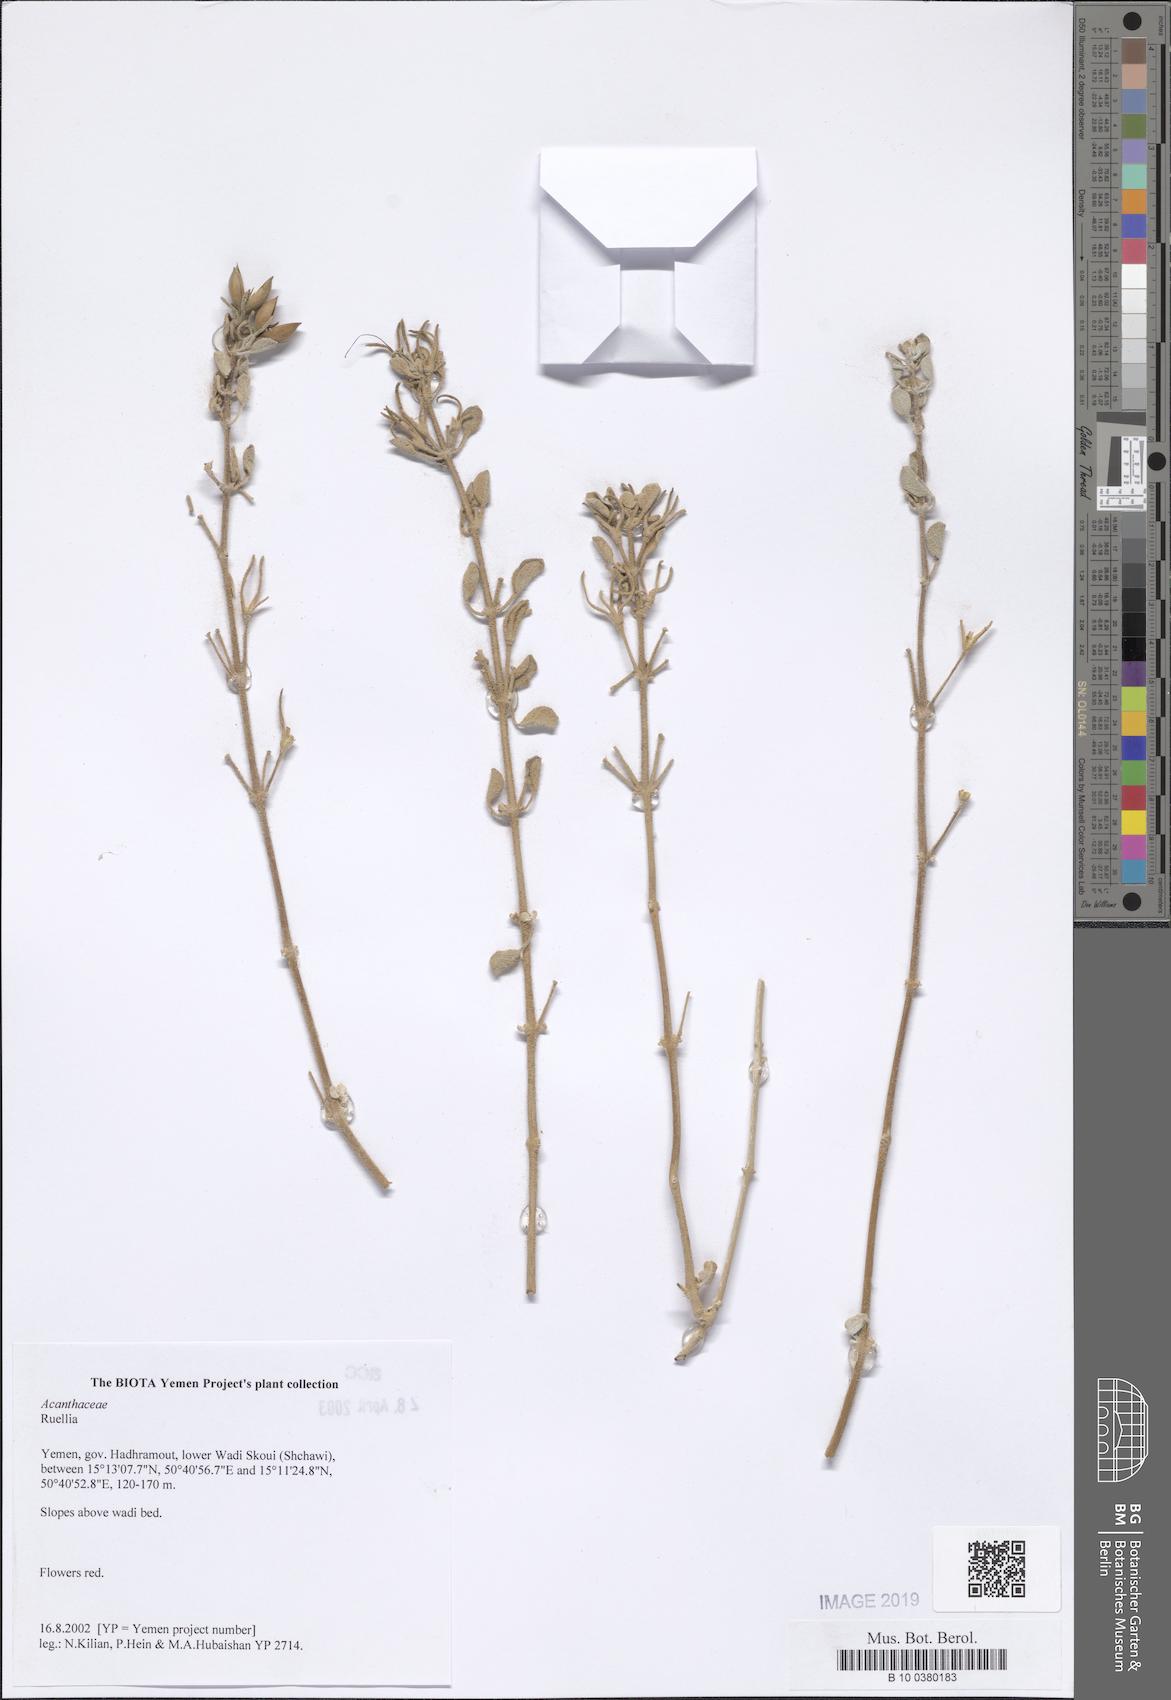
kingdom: Plantae
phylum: Tracheophyta
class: Magnoliopsida
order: Lamiales
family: Acanthaceae
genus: Ruellia
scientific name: Ruellia
